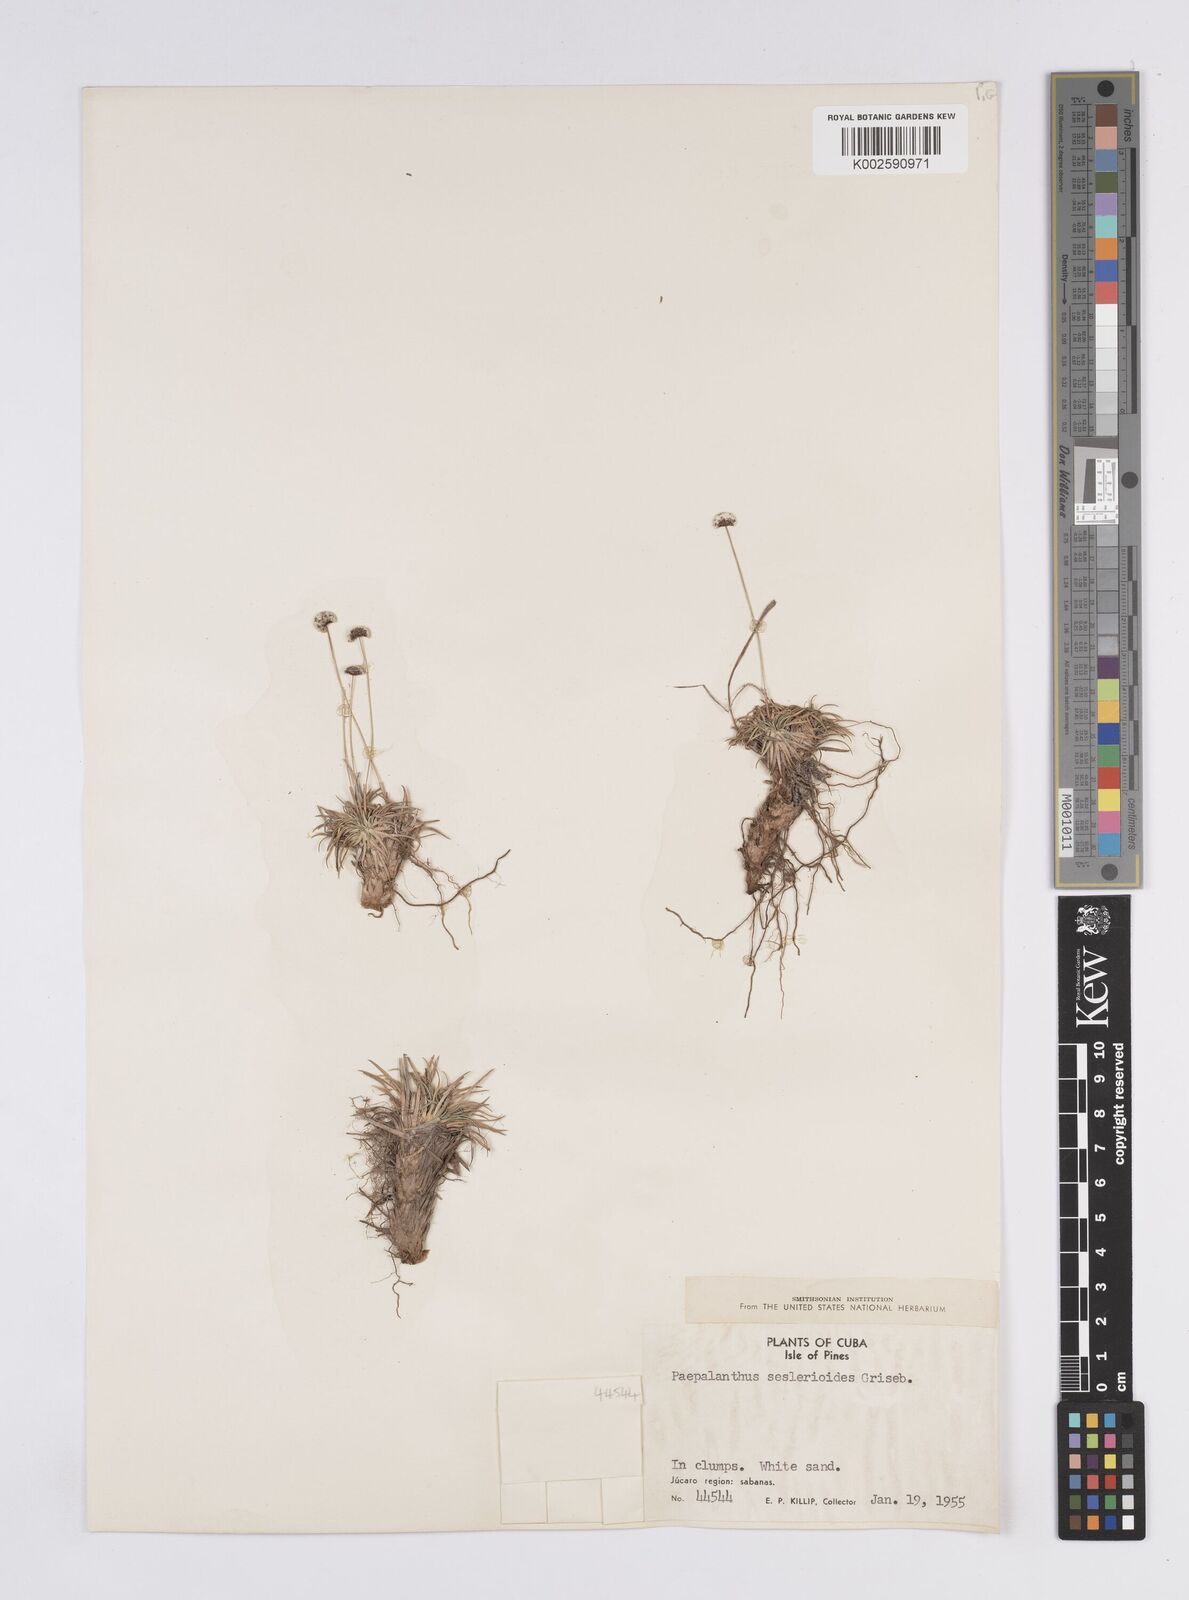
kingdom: Plantae
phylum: Tracheophyta
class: Liliopsida
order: Poales
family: Eriocaulaceae
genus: Paepalanthus
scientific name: Paepalanthus seslerioides
